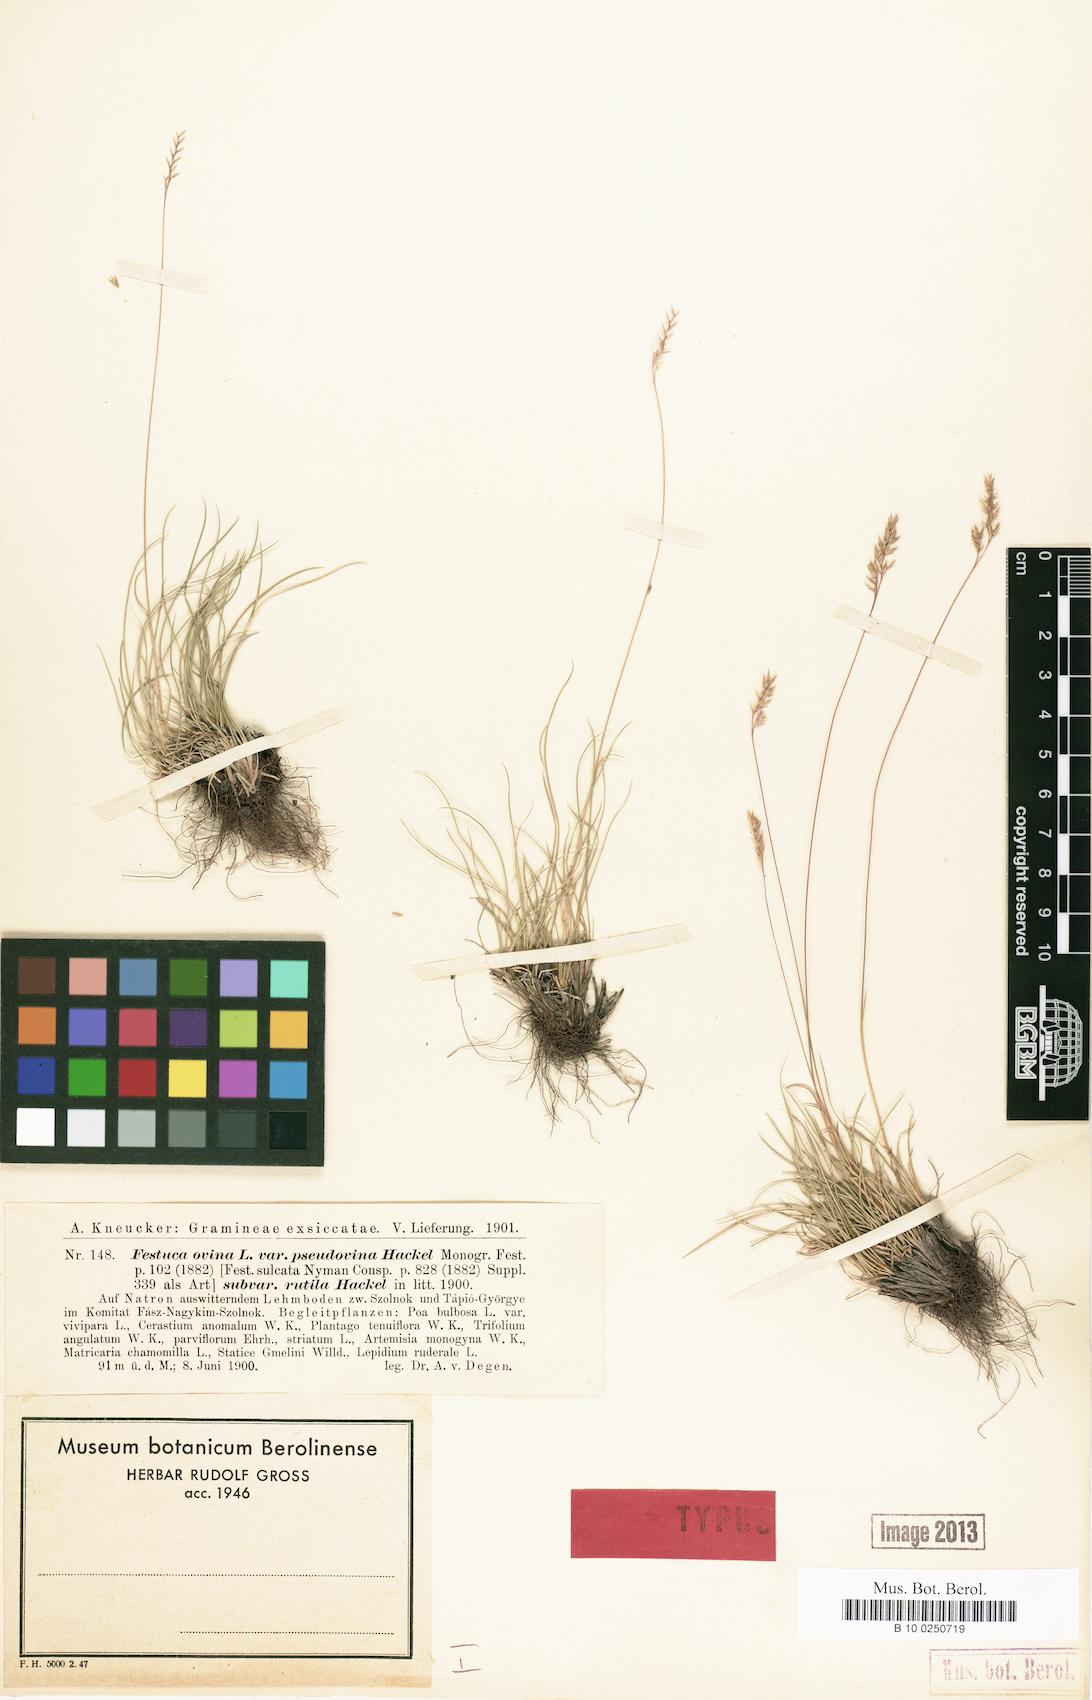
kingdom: Plantae
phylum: Tracheophyta
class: Liliopsida
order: Poales
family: Poaceae
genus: Festuca
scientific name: Festuca ovina
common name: Sheep fescue
